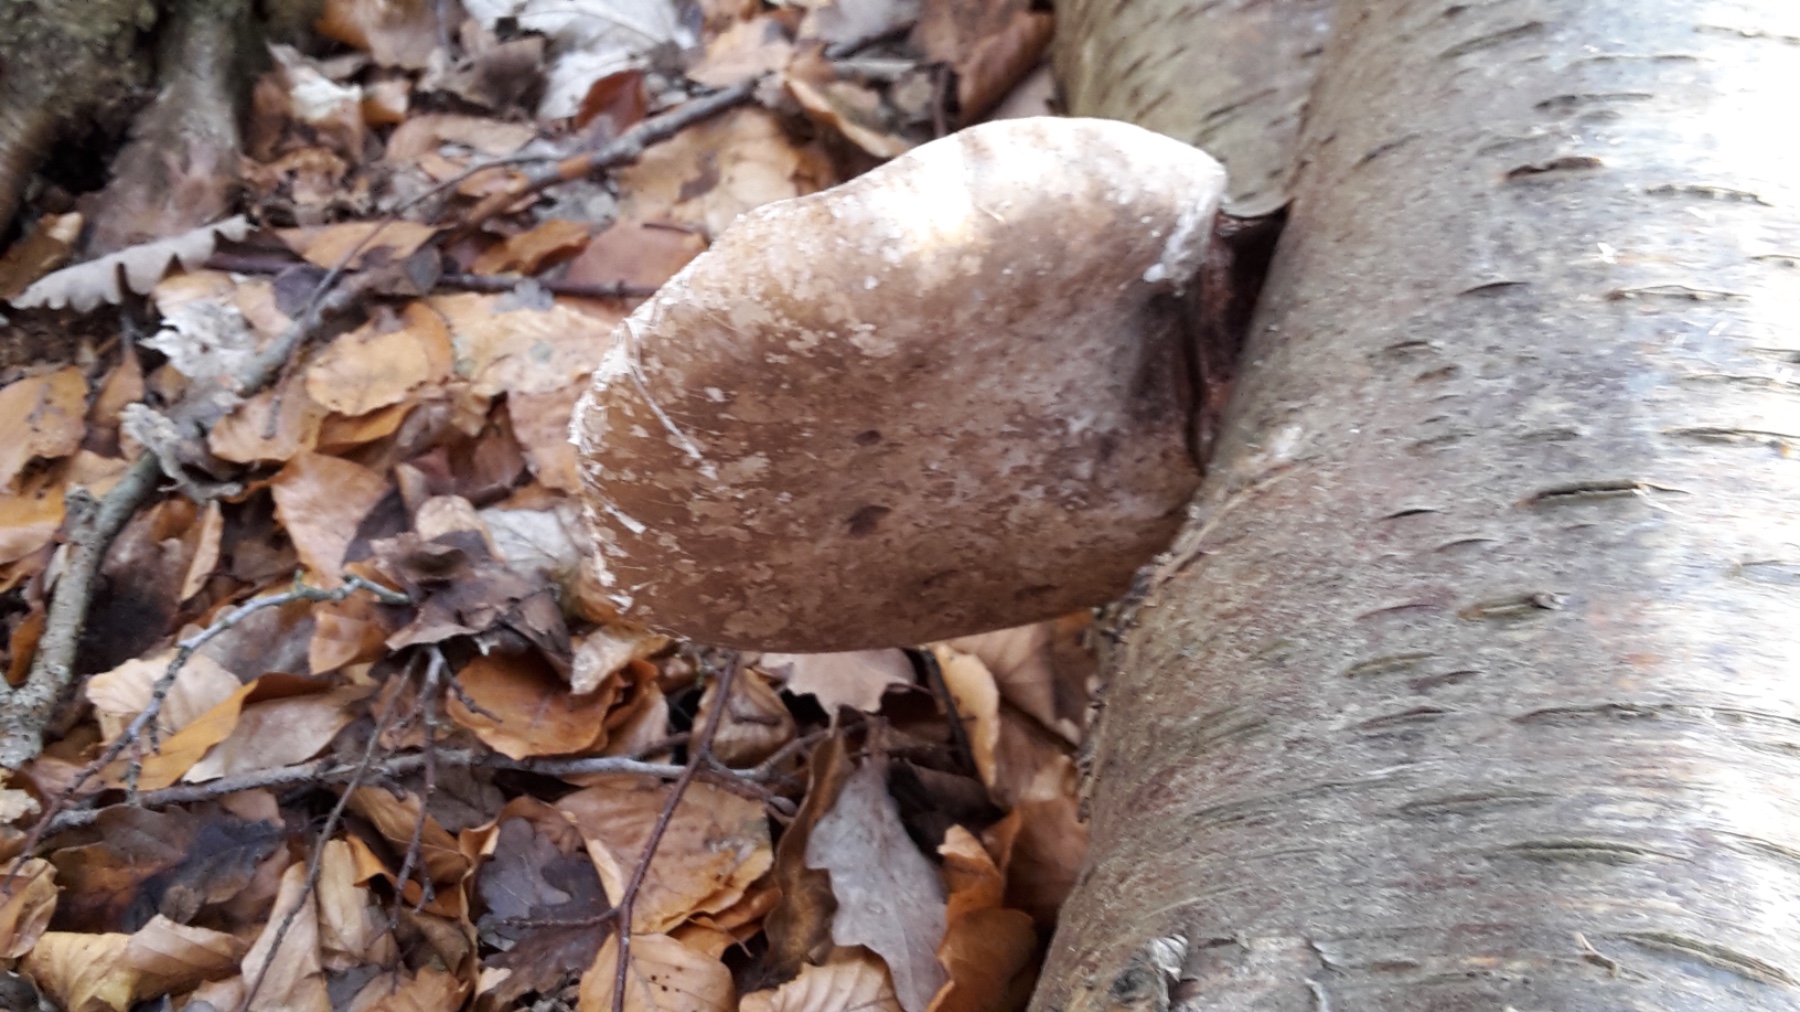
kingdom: Fungi
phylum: Basidiomycota
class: Agaricomycetes
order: Polyporales
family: Fomitopsidaceae
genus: Fomitopsis
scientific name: Fomitopsis betulina
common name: birkeporesvamp
